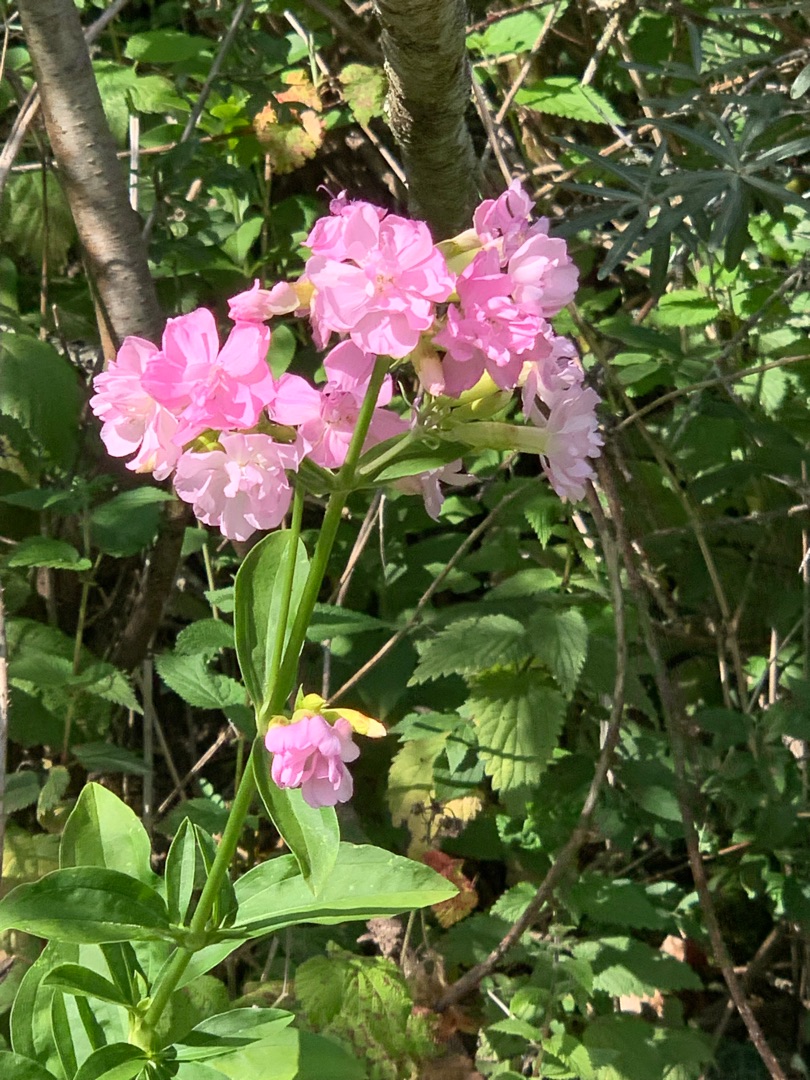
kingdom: Plantae
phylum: Tracheophyta
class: Magnoliopsida
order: Caryophyllales
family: Caryophyllaceae
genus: Saponaria
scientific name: Saponaria officinalis
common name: Sæbeurt
